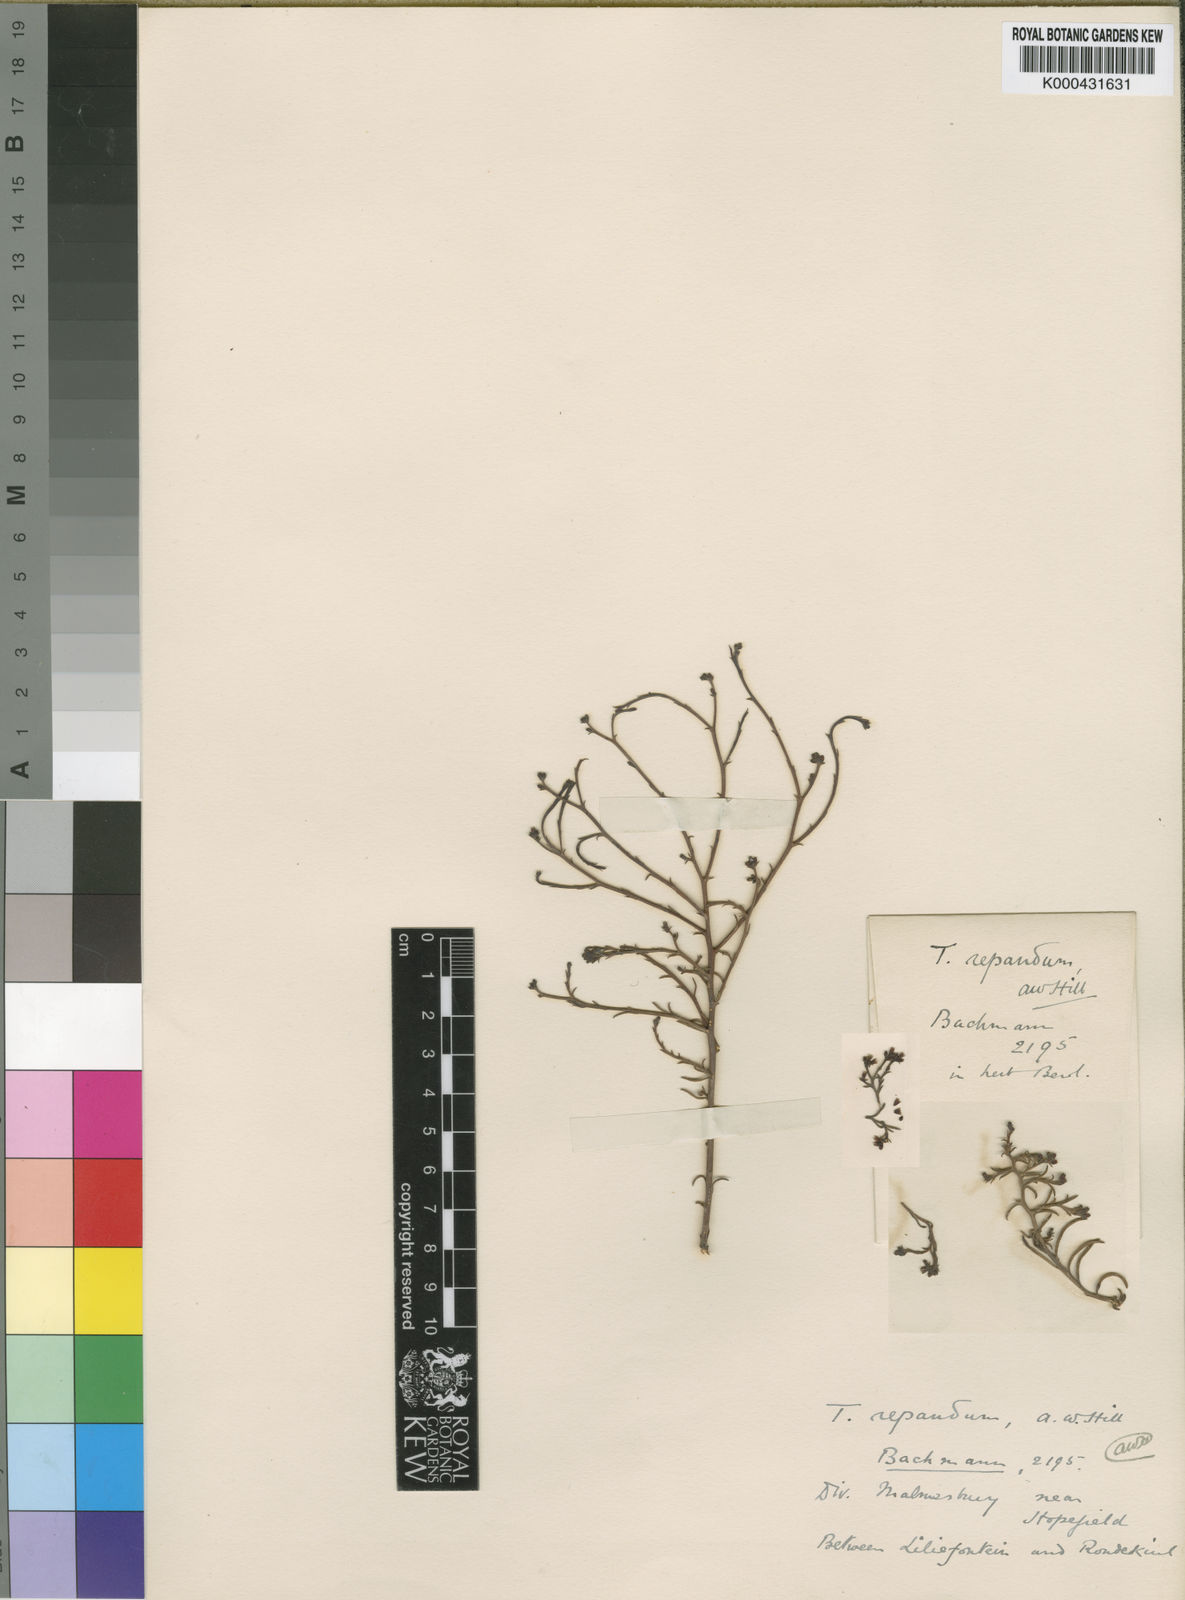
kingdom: Plantae
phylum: Tracheophyta
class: Magnoliopsida
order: Santalales
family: Thesiaceae
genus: Thesium
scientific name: Thesium repandum
